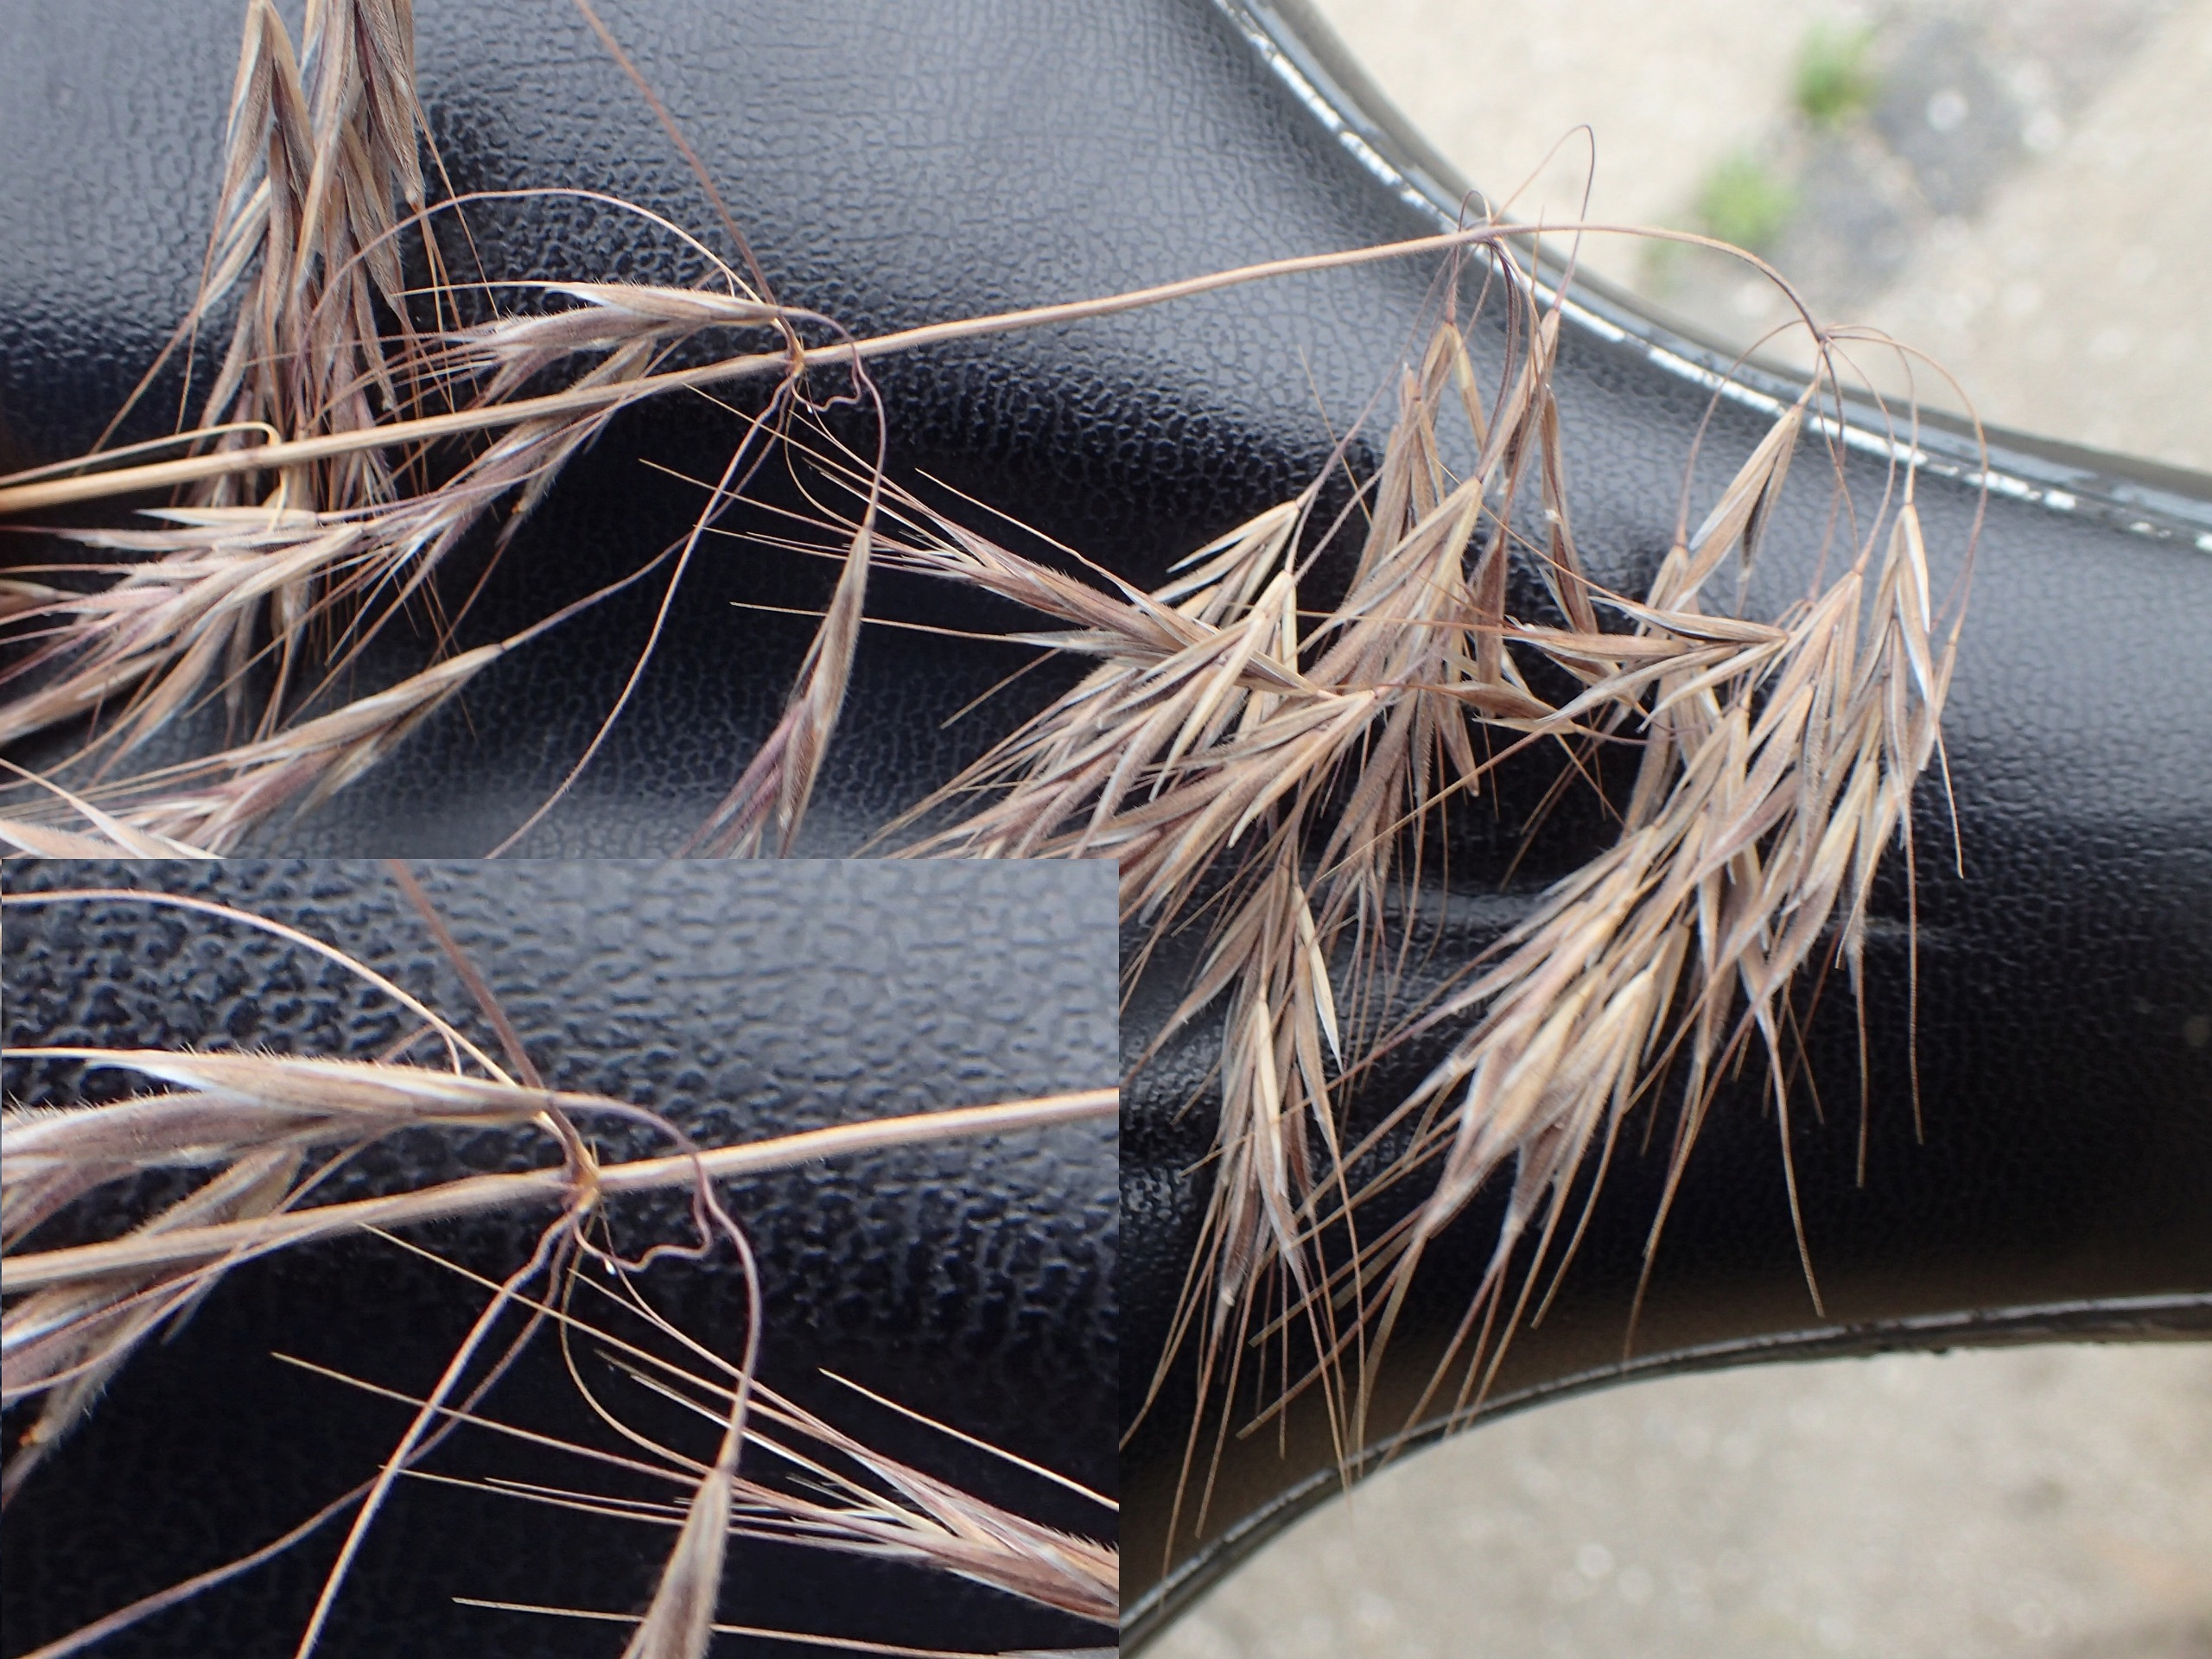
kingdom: Plantae
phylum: Tracheophyta
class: Liliopsida
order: Poales
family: Poaceae
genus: Bromus
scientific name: Bromus tectorum
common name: Tag-hejre
